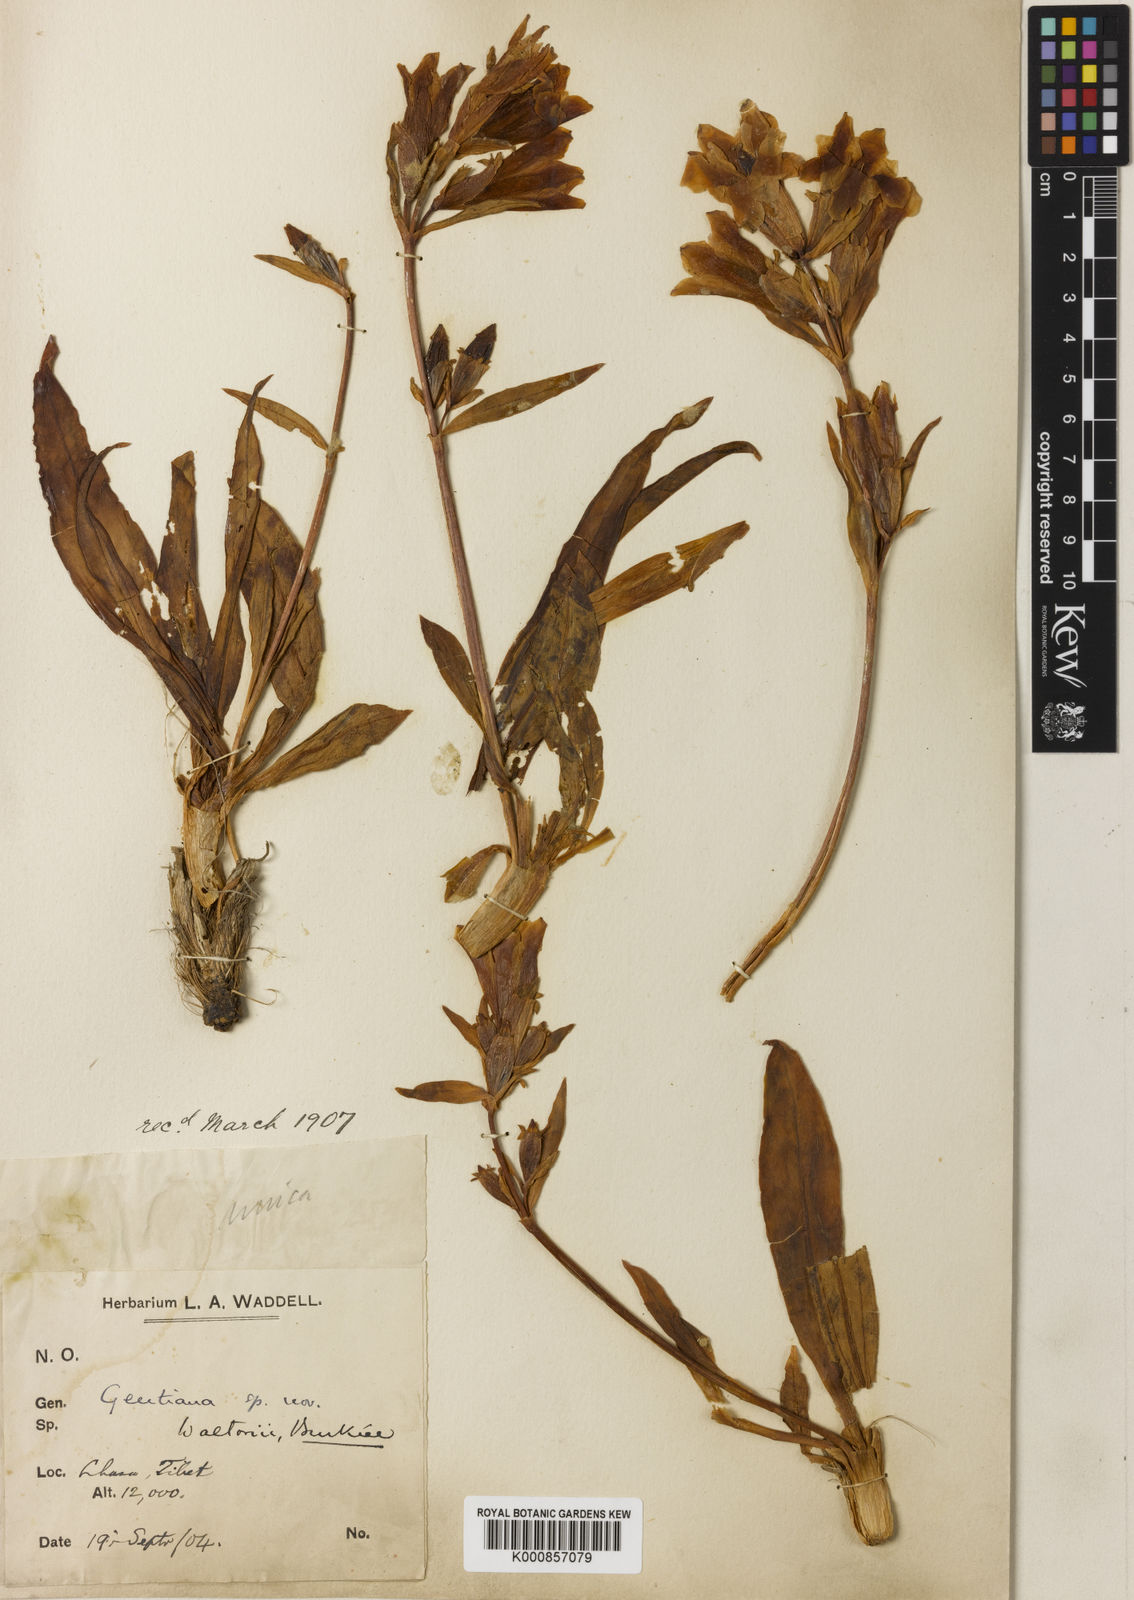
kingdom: Plantae
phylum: Tracheophyta
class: Magnoliopsida
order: Gentianales
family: Gentianaceae
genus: Gentiana
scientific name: Gentiana waltonii
